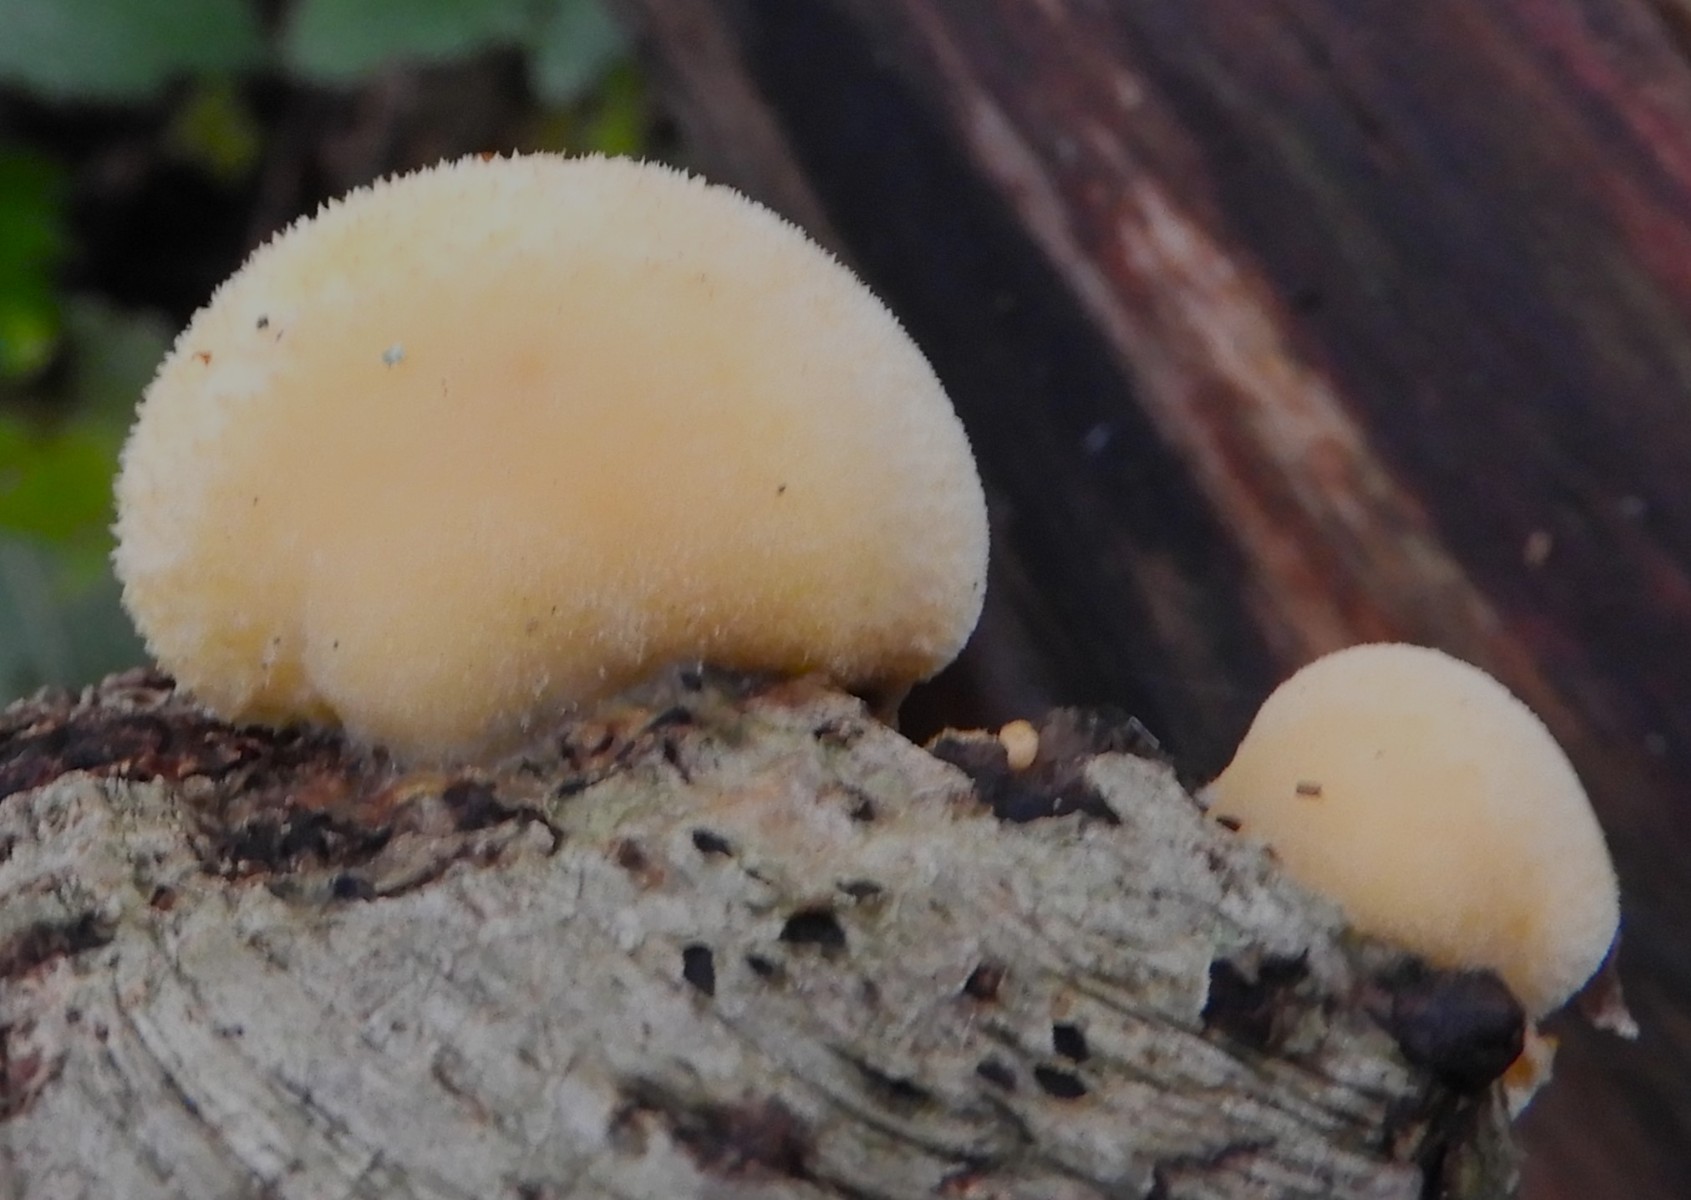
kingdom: Fungi
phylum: Basidiomycota
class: Agaricomycetes
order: Agaricales
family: Phyllotopsidaceae
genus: Phyllotopsis
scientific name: Phyllotopsis nidulans
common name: okkerblad
